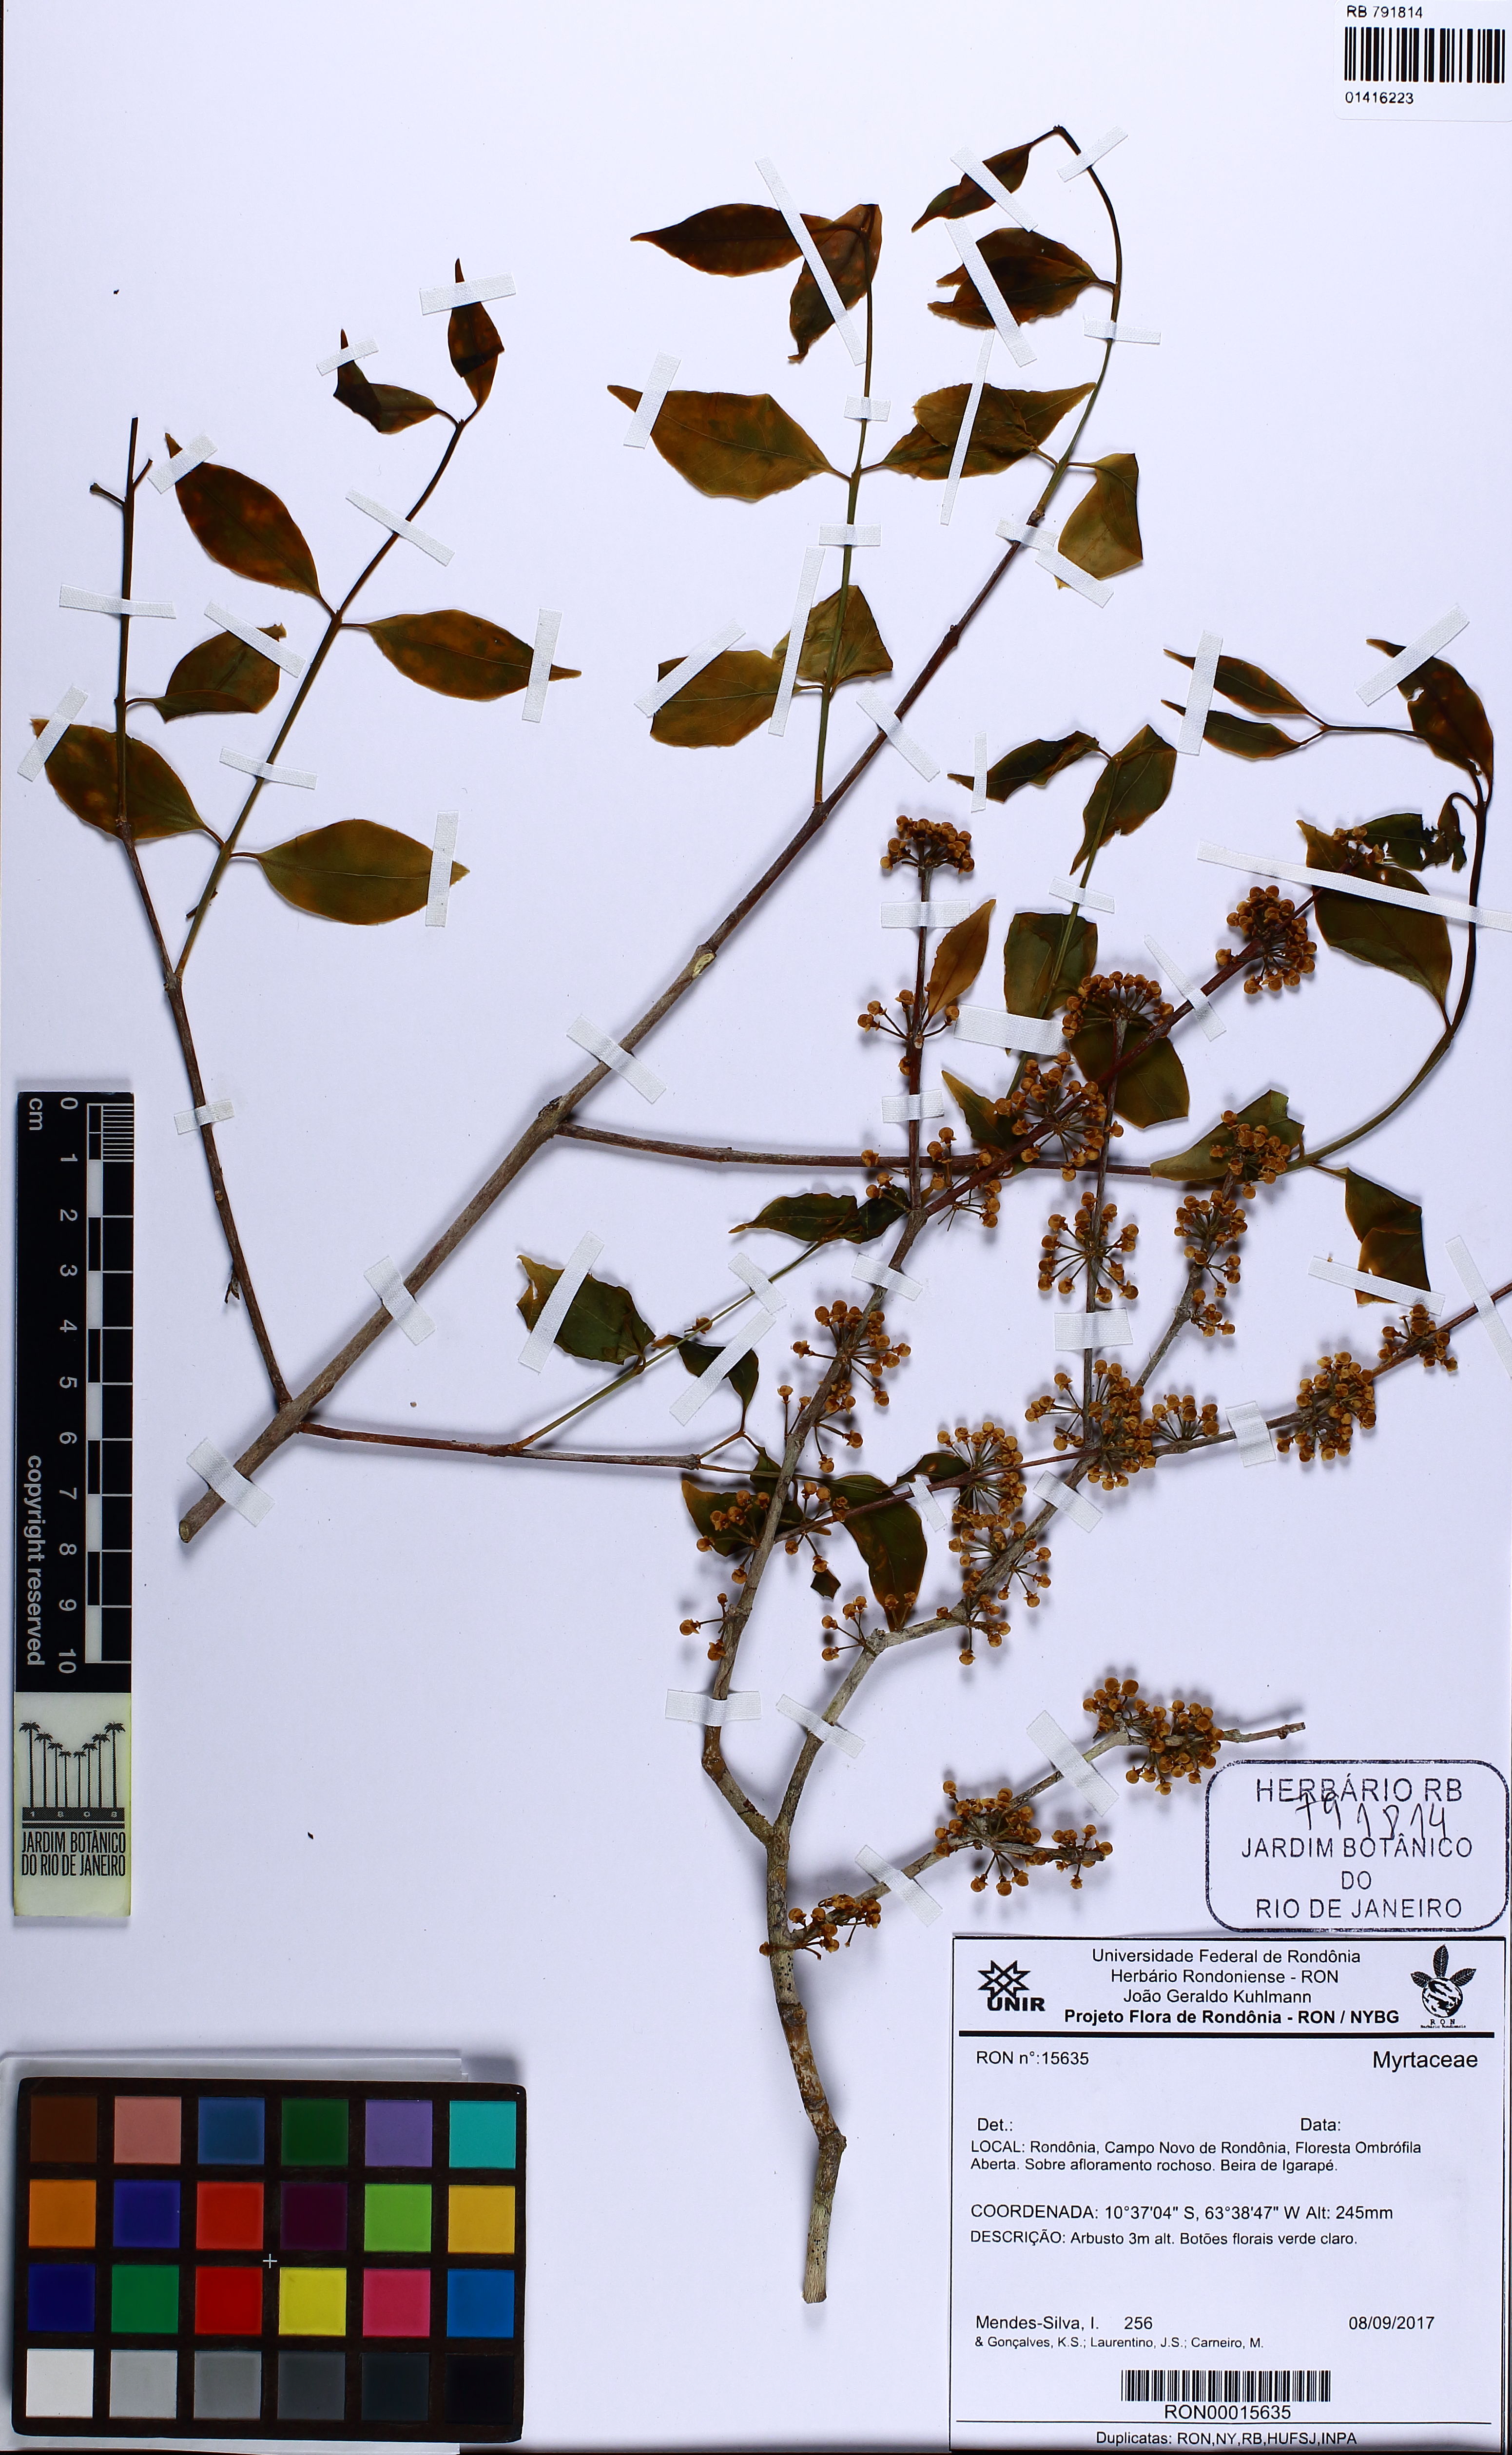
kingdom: Plantae
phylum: Tracheophyta
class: Magnoliopsida
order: Myrtales
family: Myrtaceae
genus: Eugenia
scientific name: Eugenia flavescens
